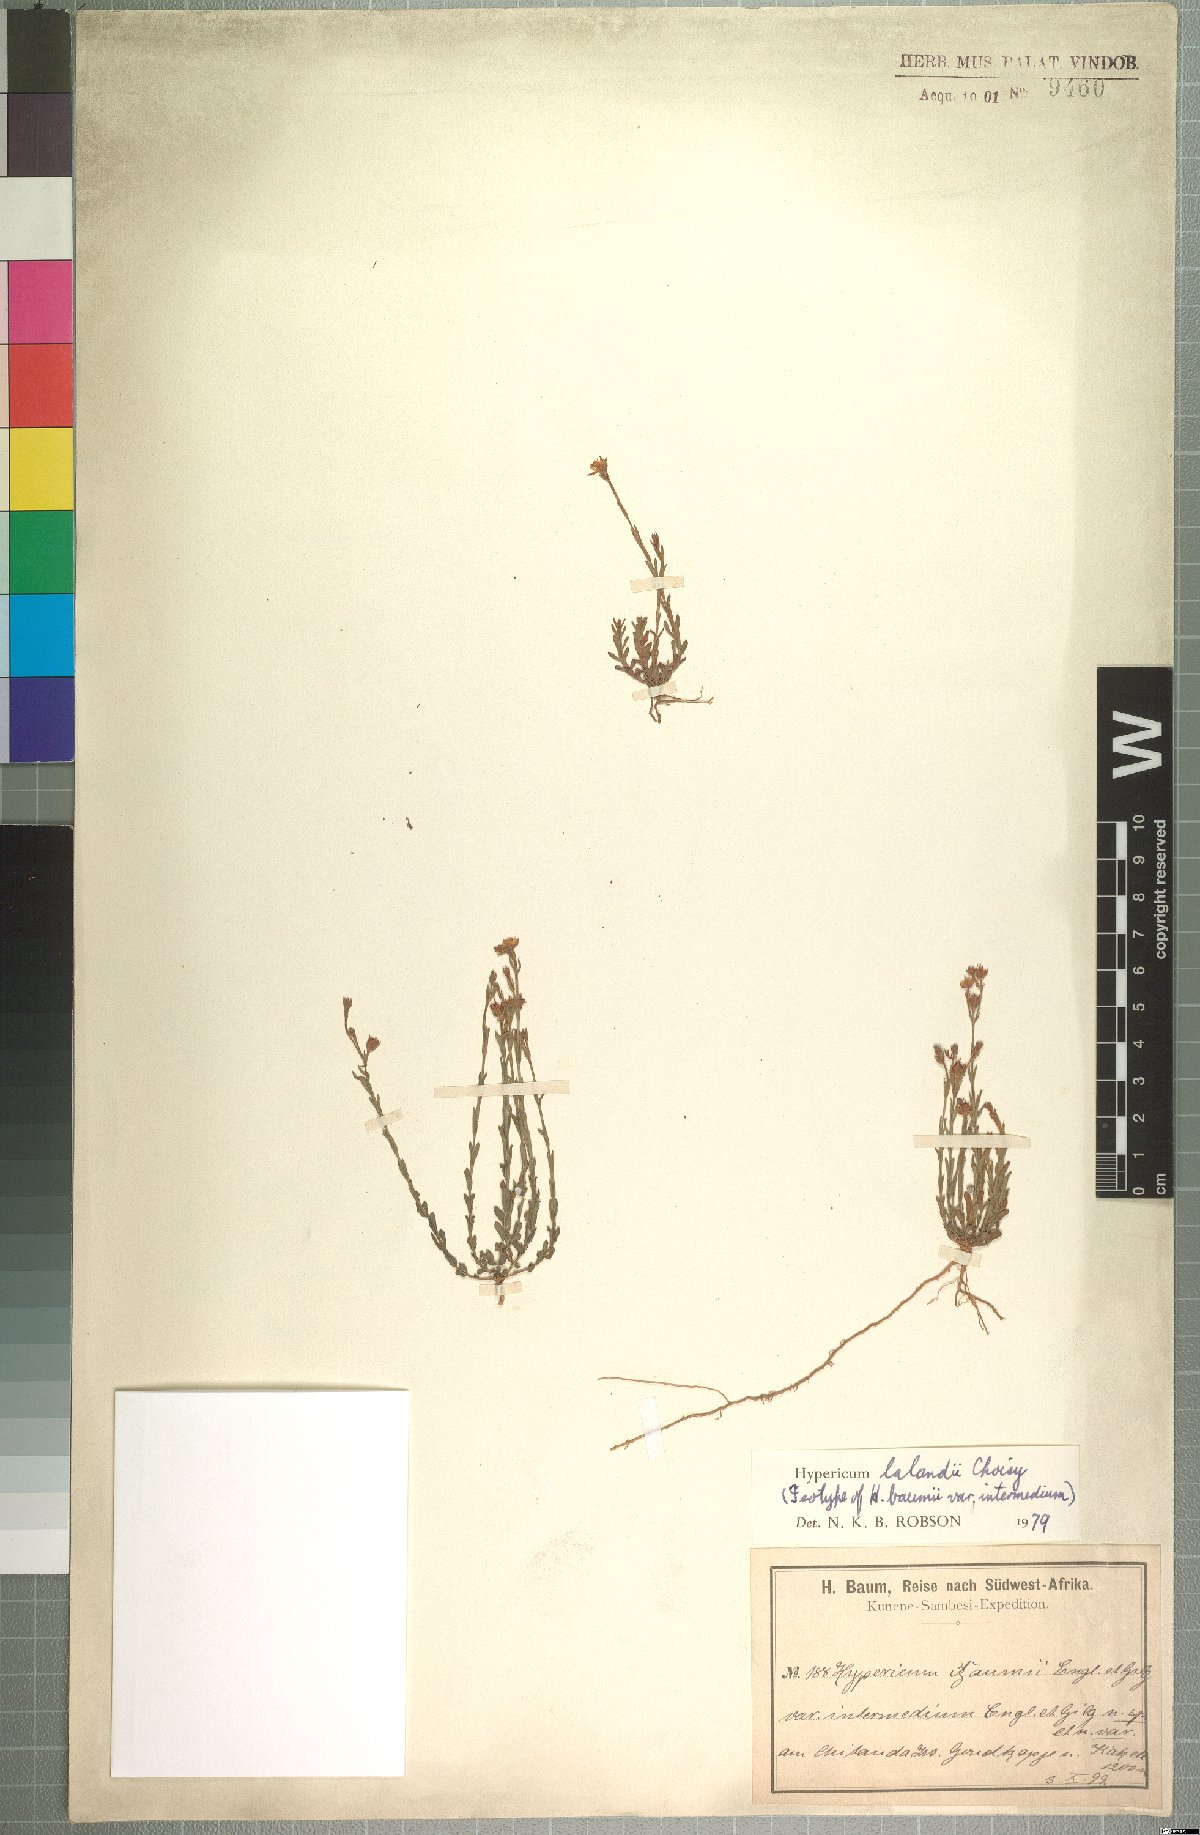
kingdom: Plantae
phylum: Tracheophyta
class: Magnoliopsida
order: Malpighiales
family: Hypericaceae
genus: Hypericum
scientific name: Hypericum lalandii
